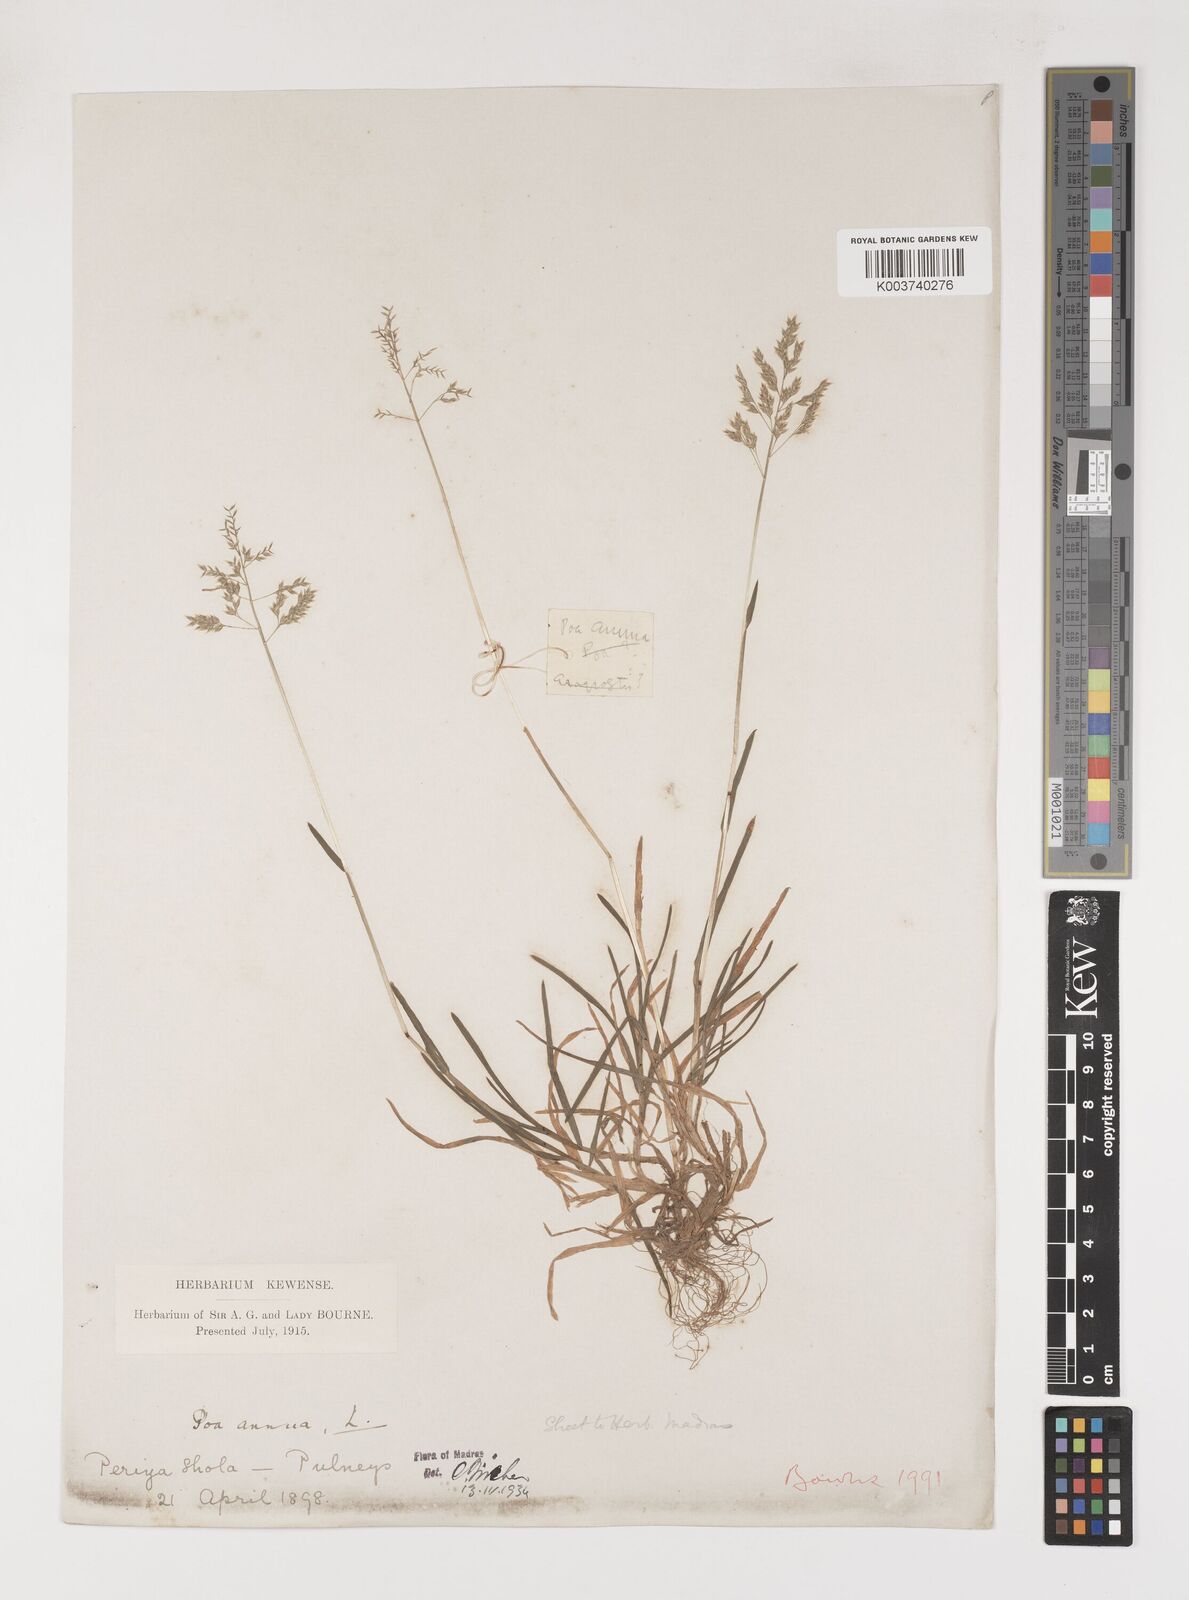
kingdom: Plantae
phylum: Tracheophyta
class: Liliopsida
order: Poales
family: Poaceae
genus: Poa
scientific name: Poa annua
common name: Annual bluegrass
